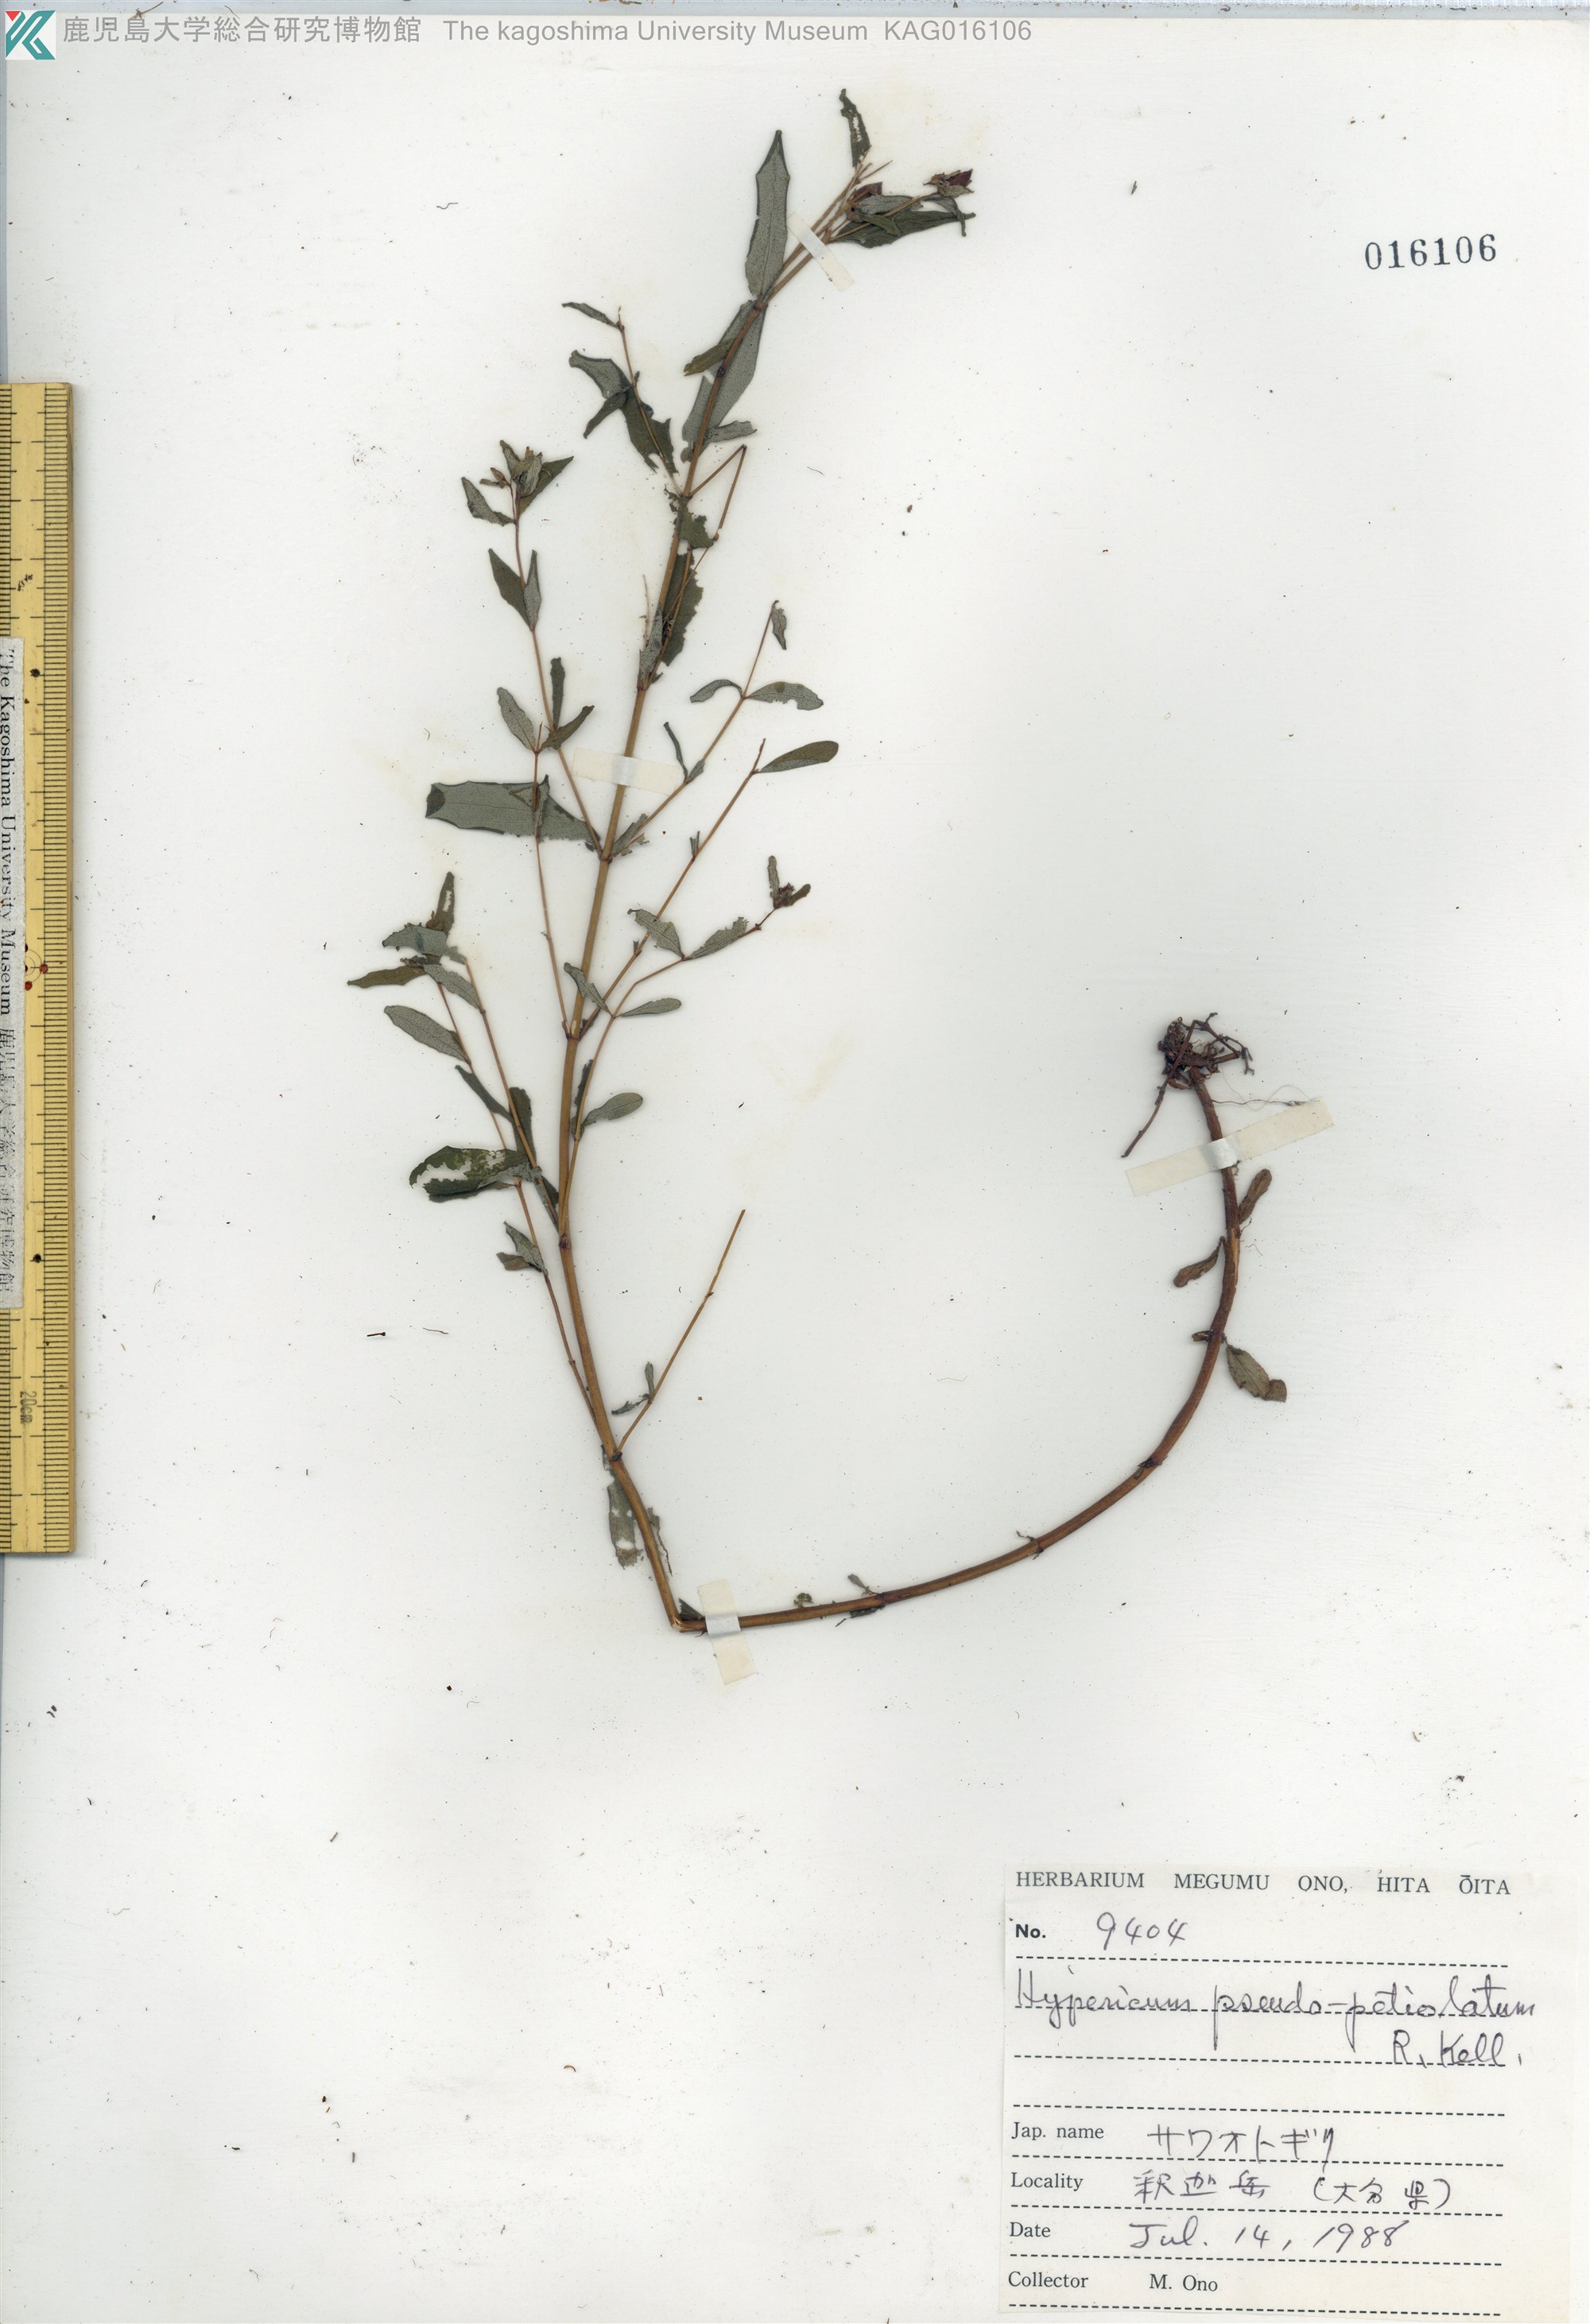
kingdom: Plantae
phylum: Tracheophyta
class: Magnoliopsida
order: Malpighiales
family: Hypericaceae
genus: Hypericum
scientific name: Hypericum pseudopetiolatum
